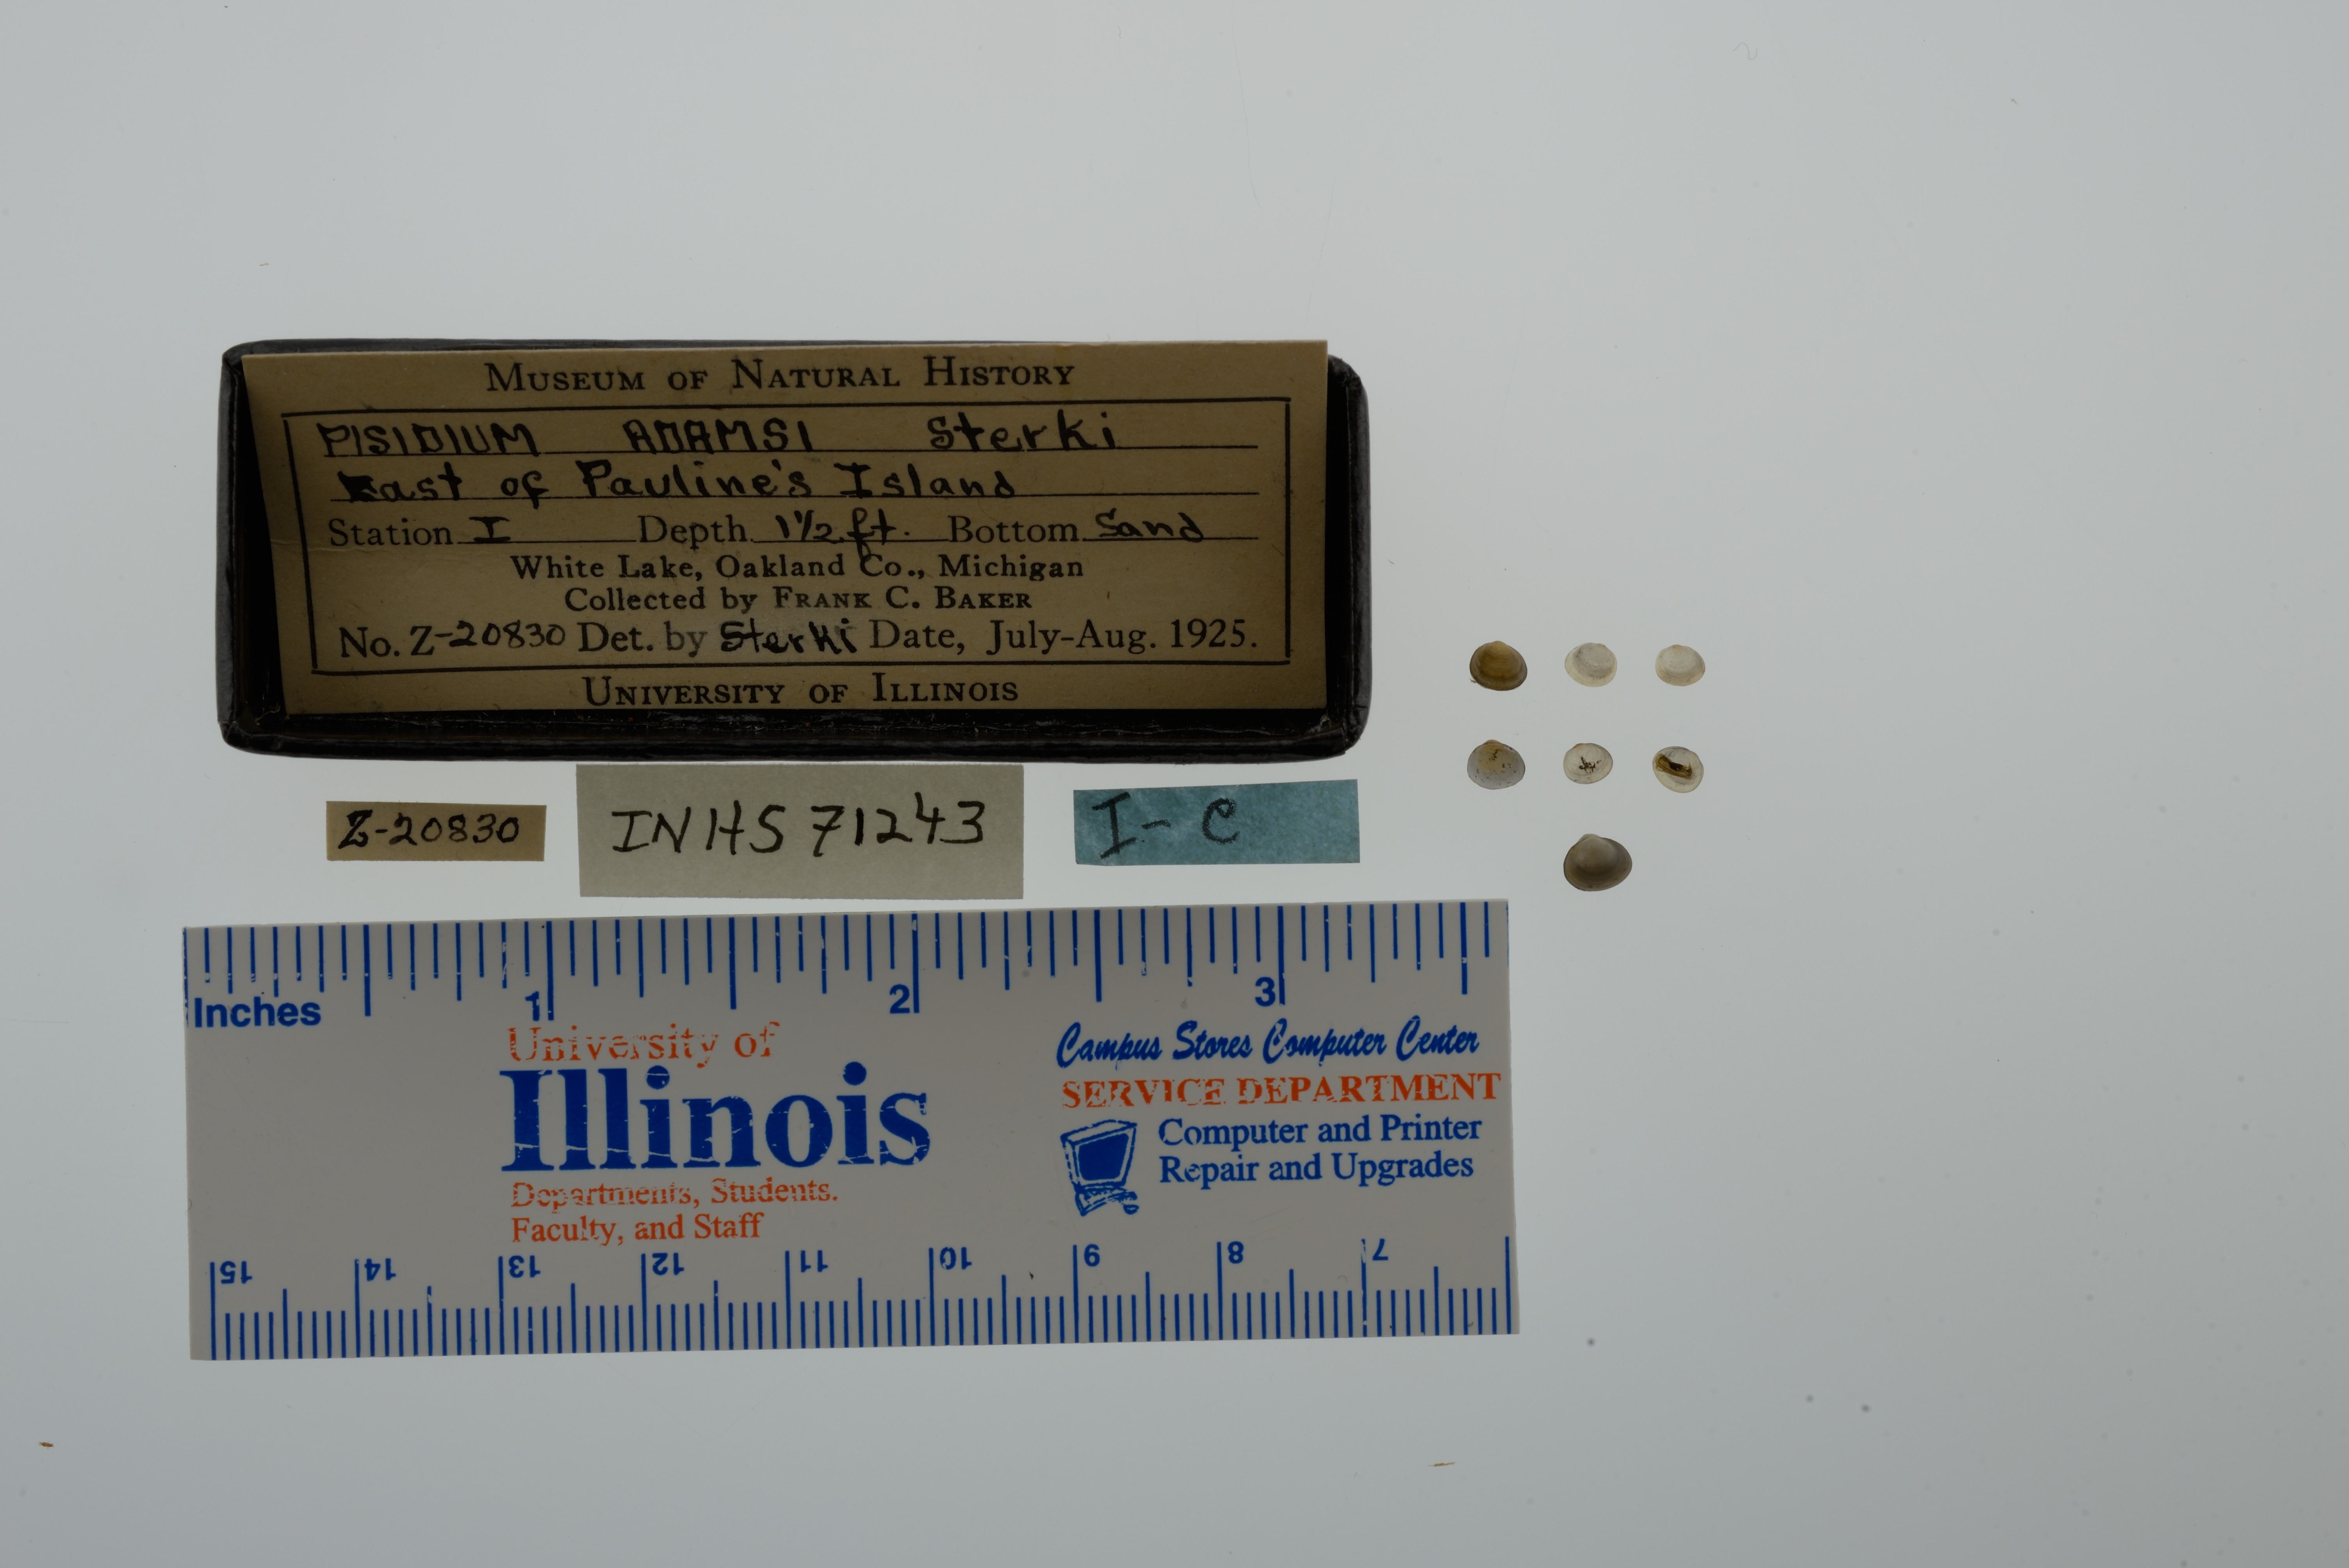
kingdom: Animalia
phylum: Mollusca
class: Bivalvia
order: Sphaeriida
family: Sphaeriidae
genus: Euglesa
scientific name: Euglesa adamsii
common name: Adam peaclam
